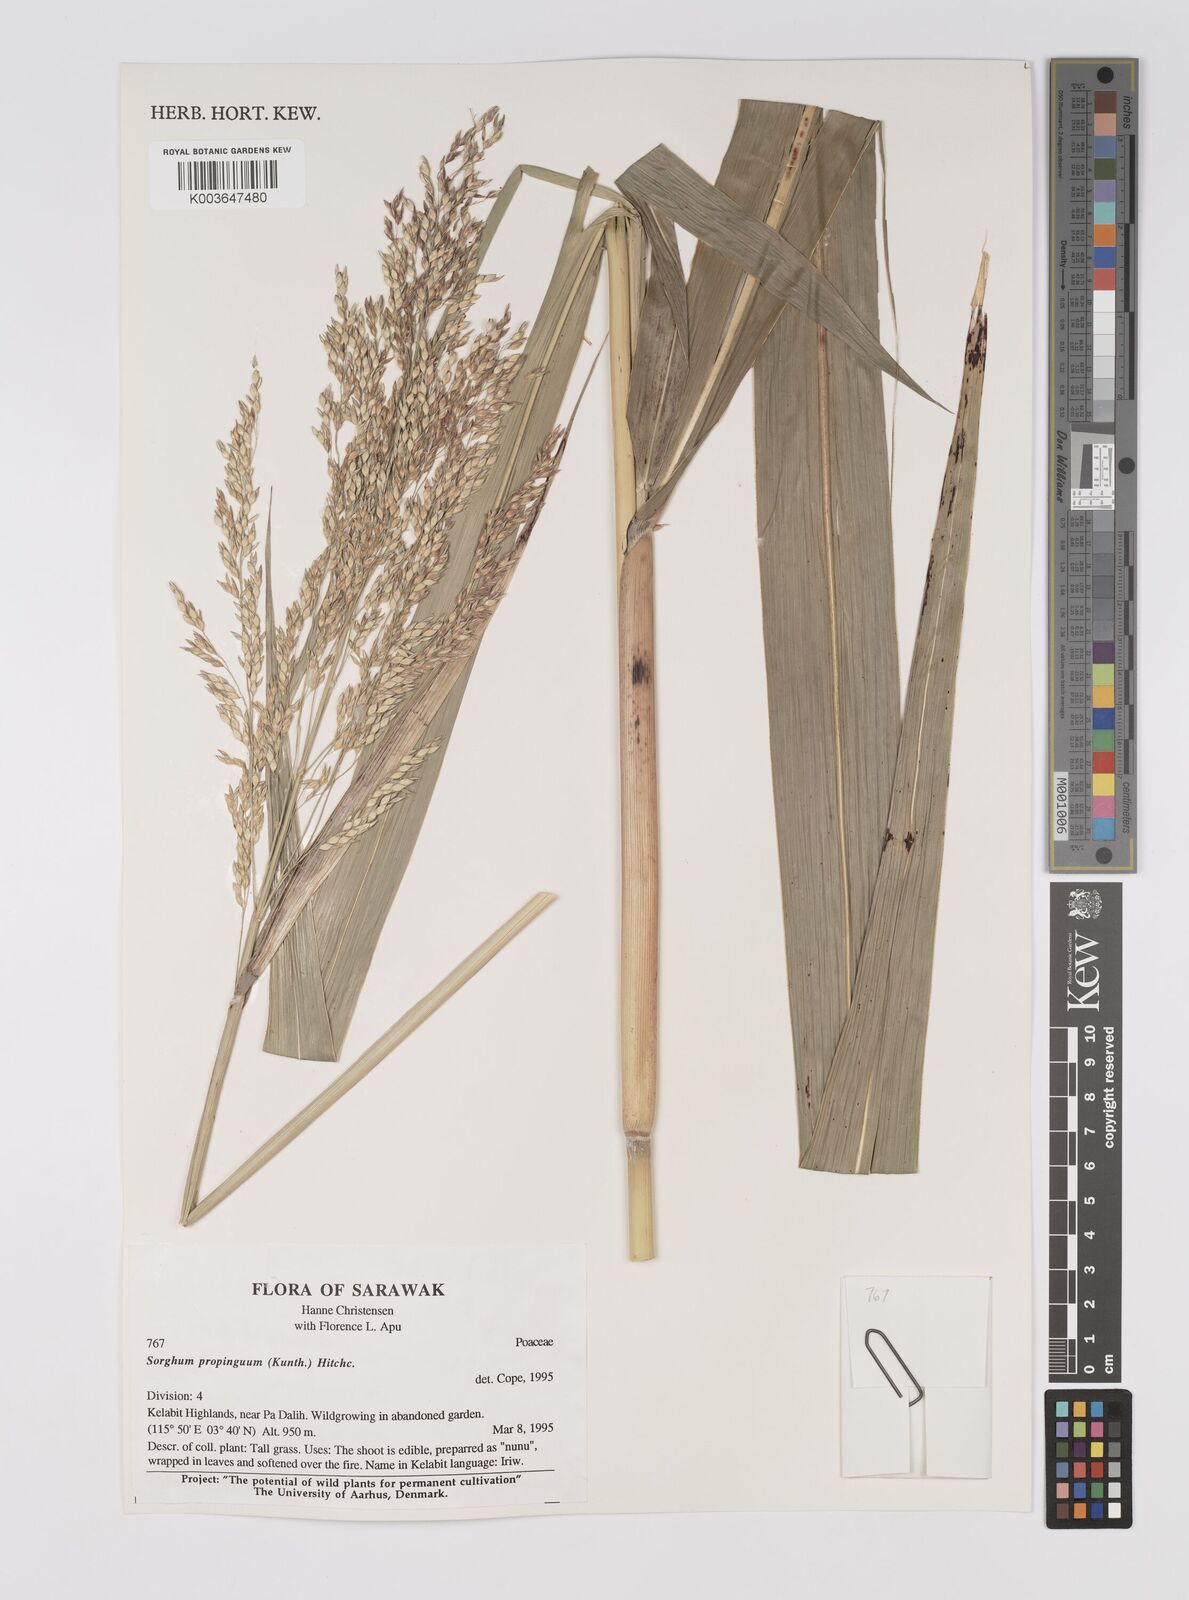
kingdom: Plantae
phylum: Tracheophyta
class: Liliopsida
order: Poales
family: Poaceae
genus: Sorghum
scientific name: Sorghum propinquum
